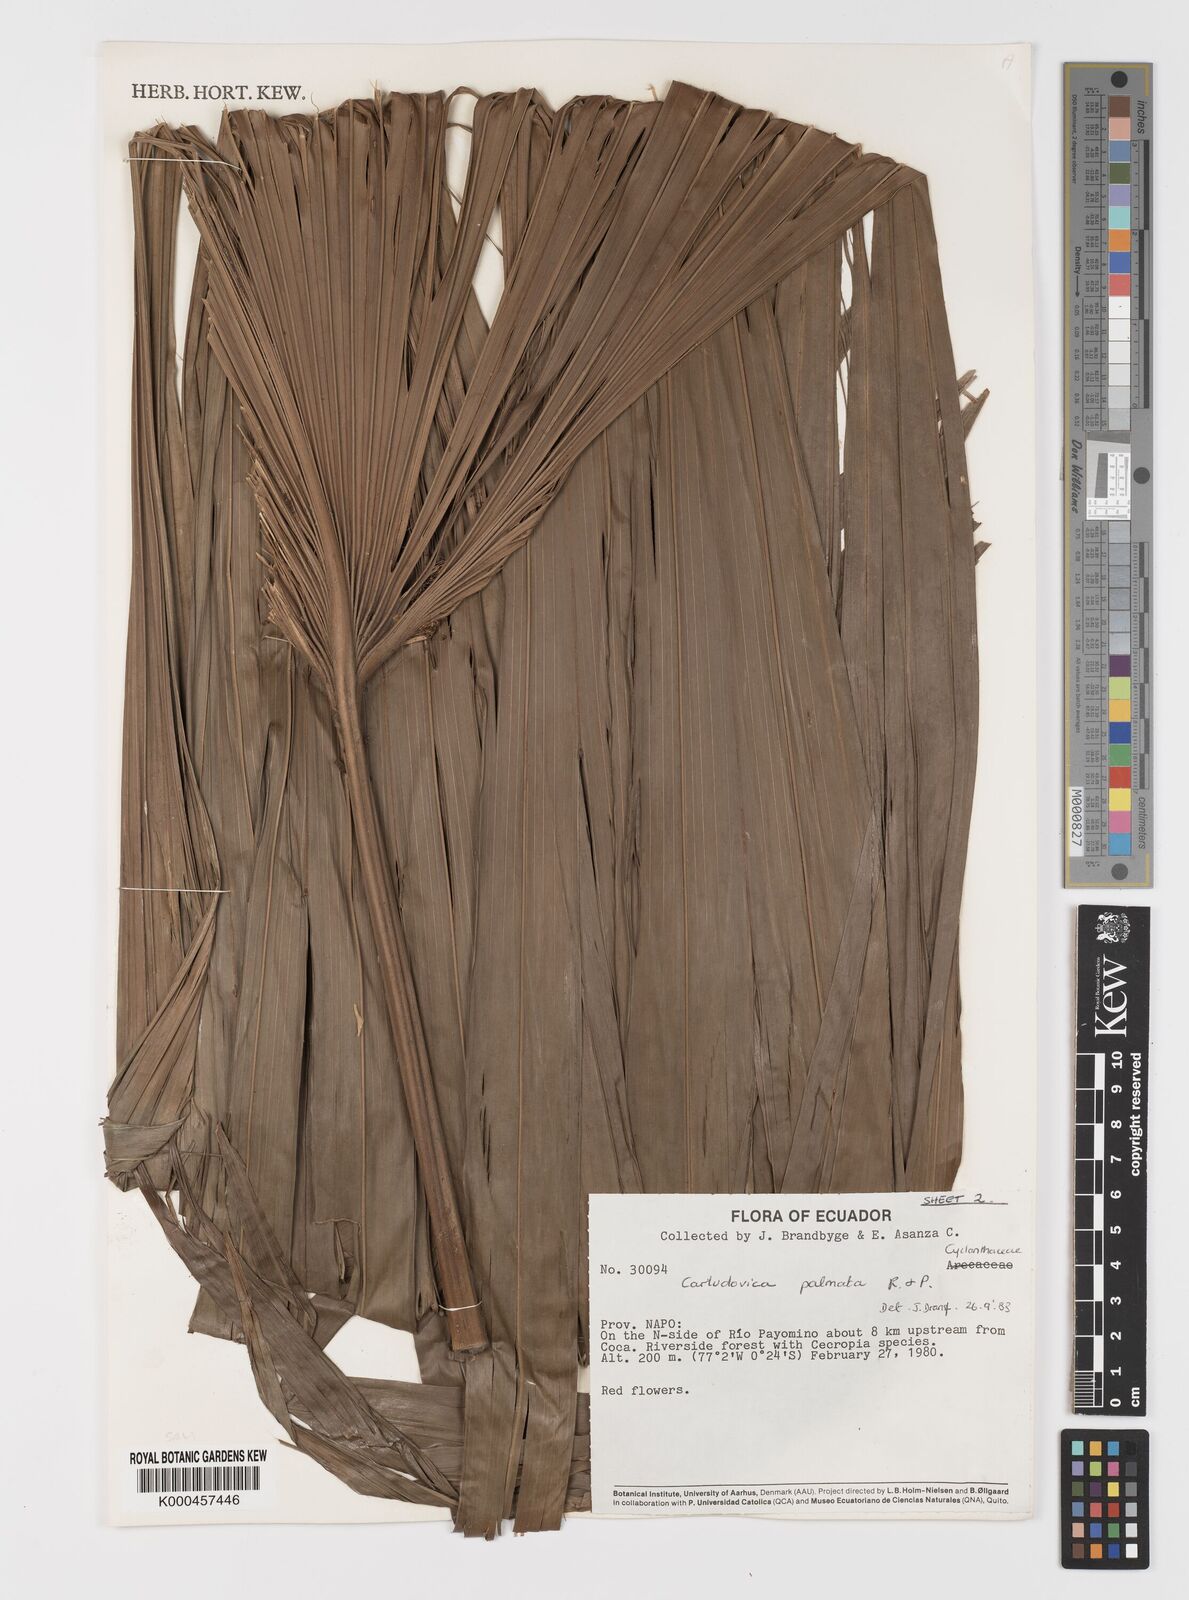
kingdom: Plantae
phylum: Tracheophyta
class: Liliopsida
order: Pandanales
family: Cyclanthaceae
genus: Carludovica
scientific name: Carludovica palmata
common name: Panama hat plant
